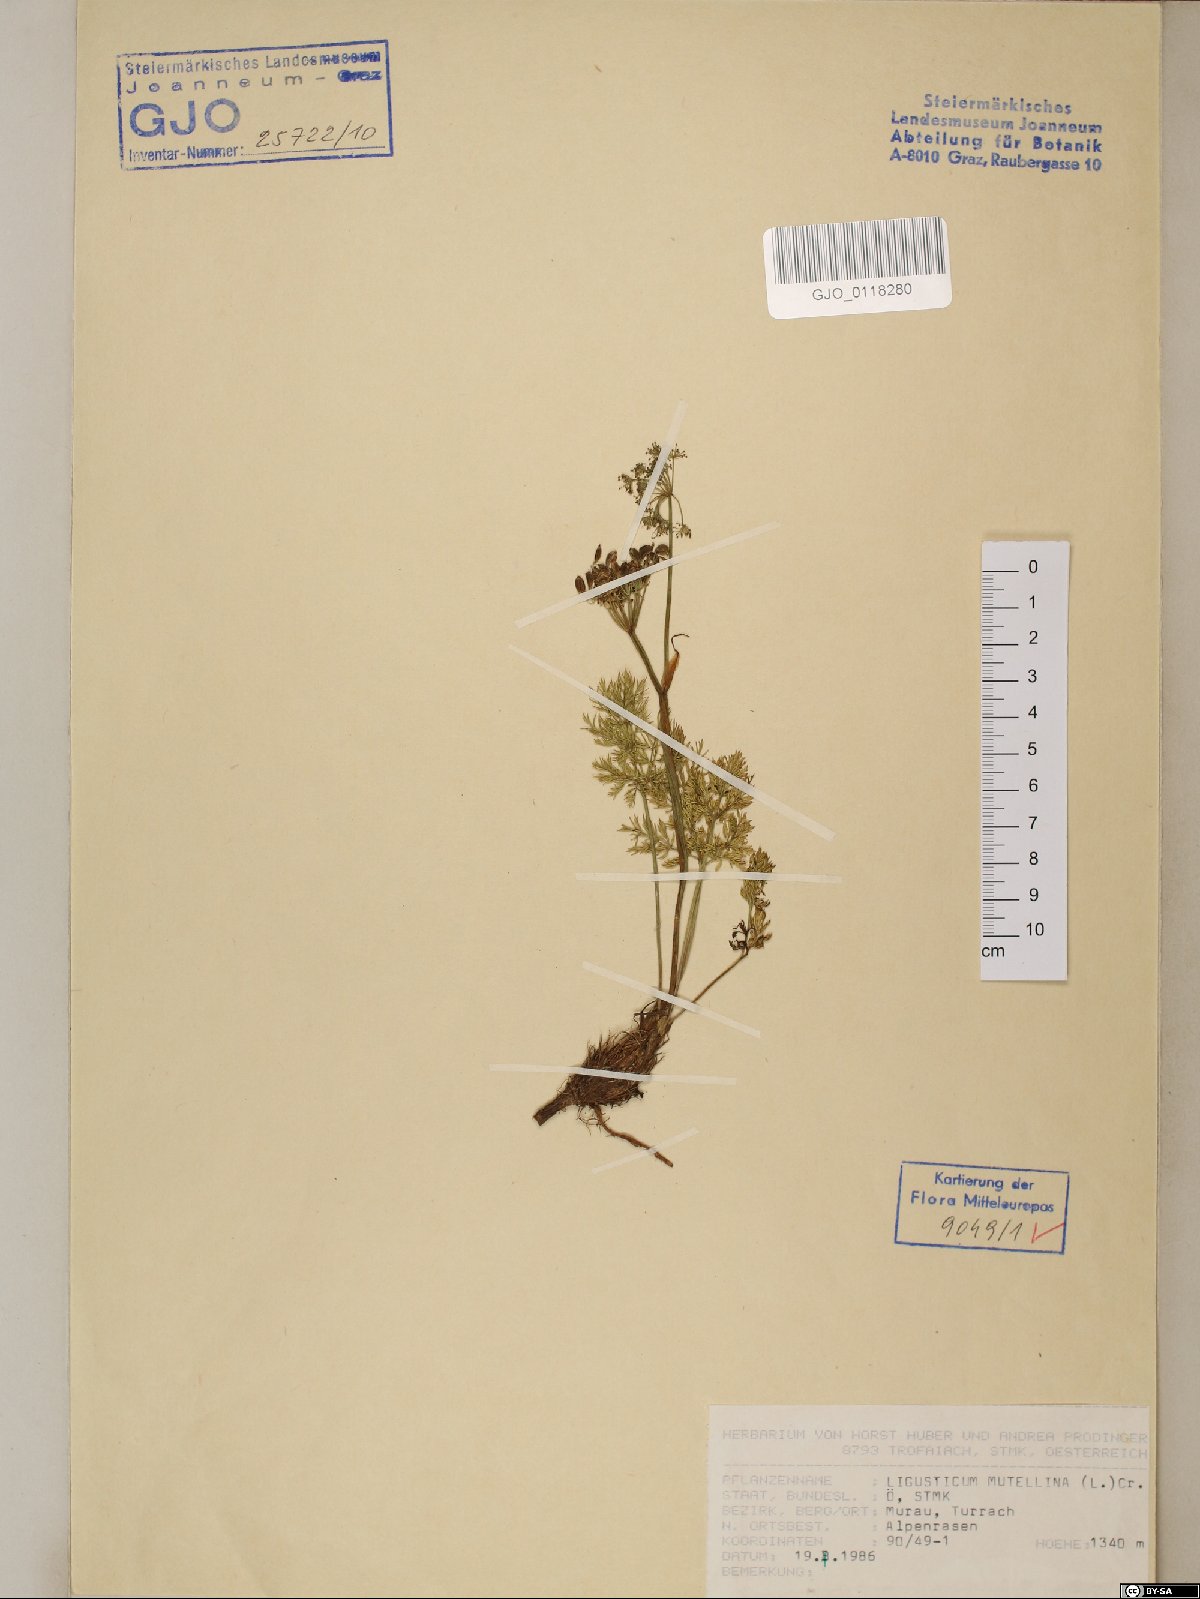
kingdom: Plantae
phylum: Tracheophyta
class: Magnoliopsida
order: Apiales
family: Apiaceae
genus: Mutellina
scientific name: Mutellina adonidifolia
